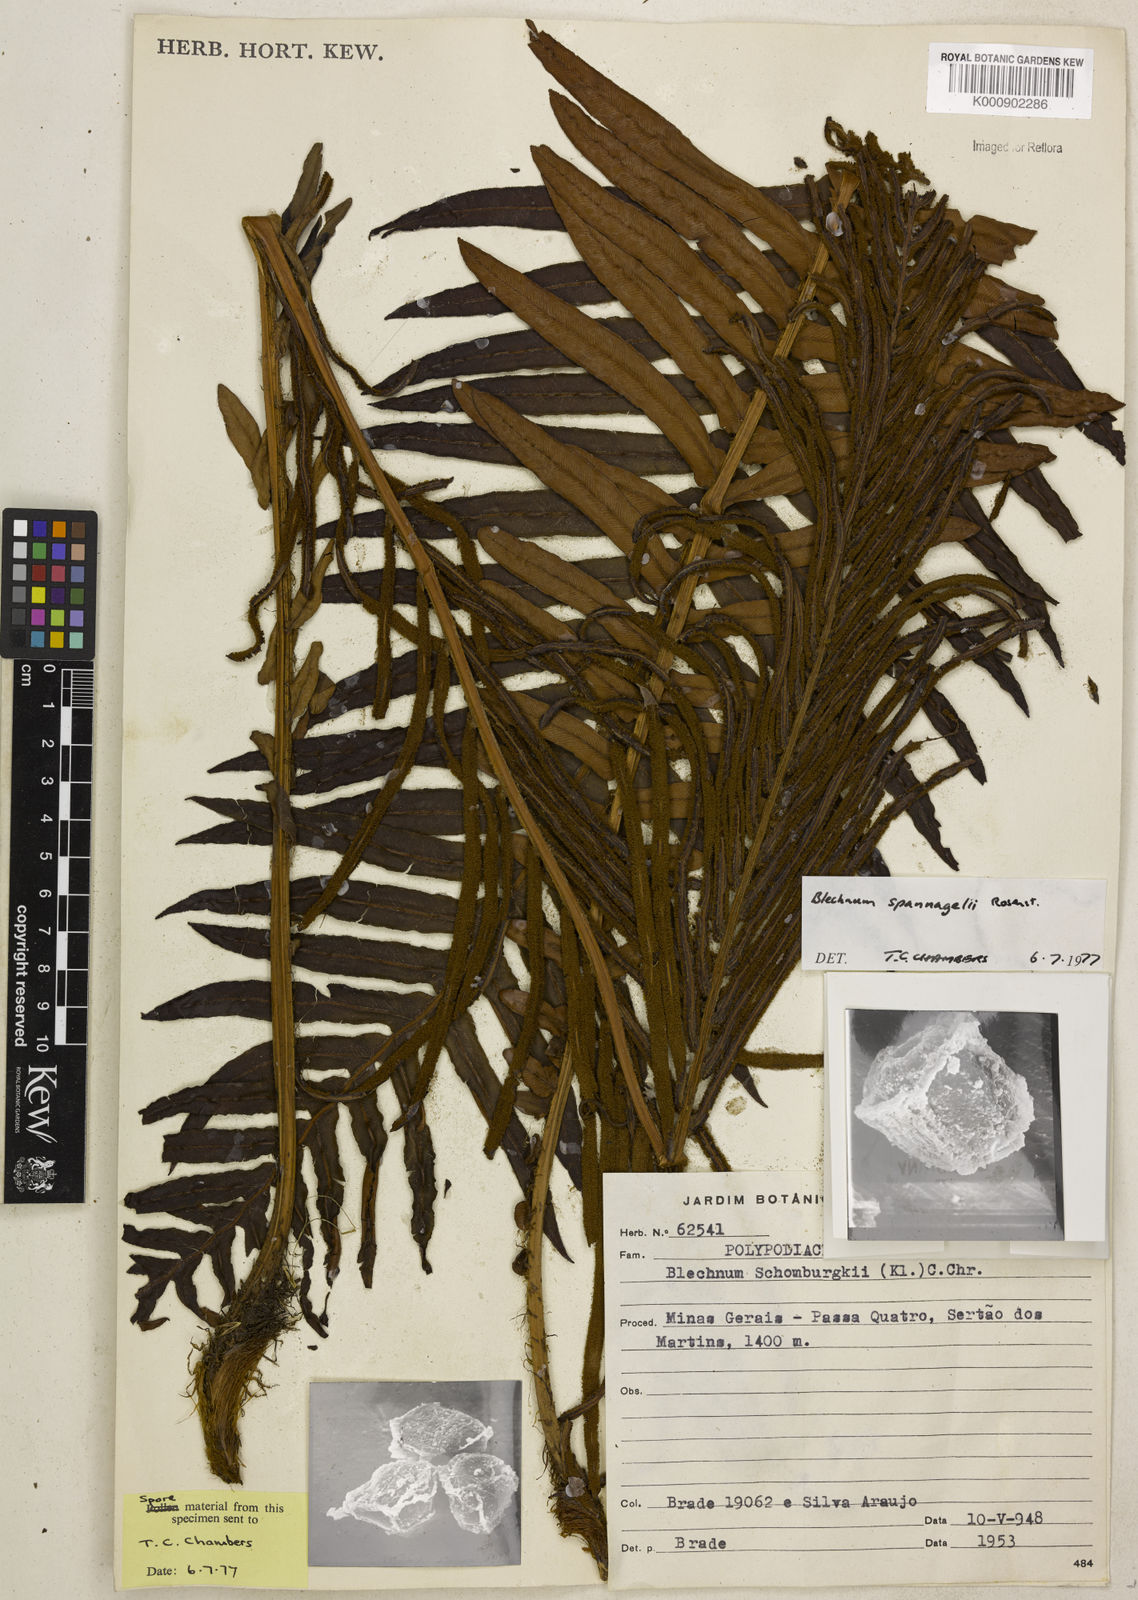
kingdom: Plantae
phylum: Tracheophyta
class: Polypodiopsida
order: Polypodiales
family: Blechnaceae
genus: Lomaria
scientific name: Lomaria spannagelii
